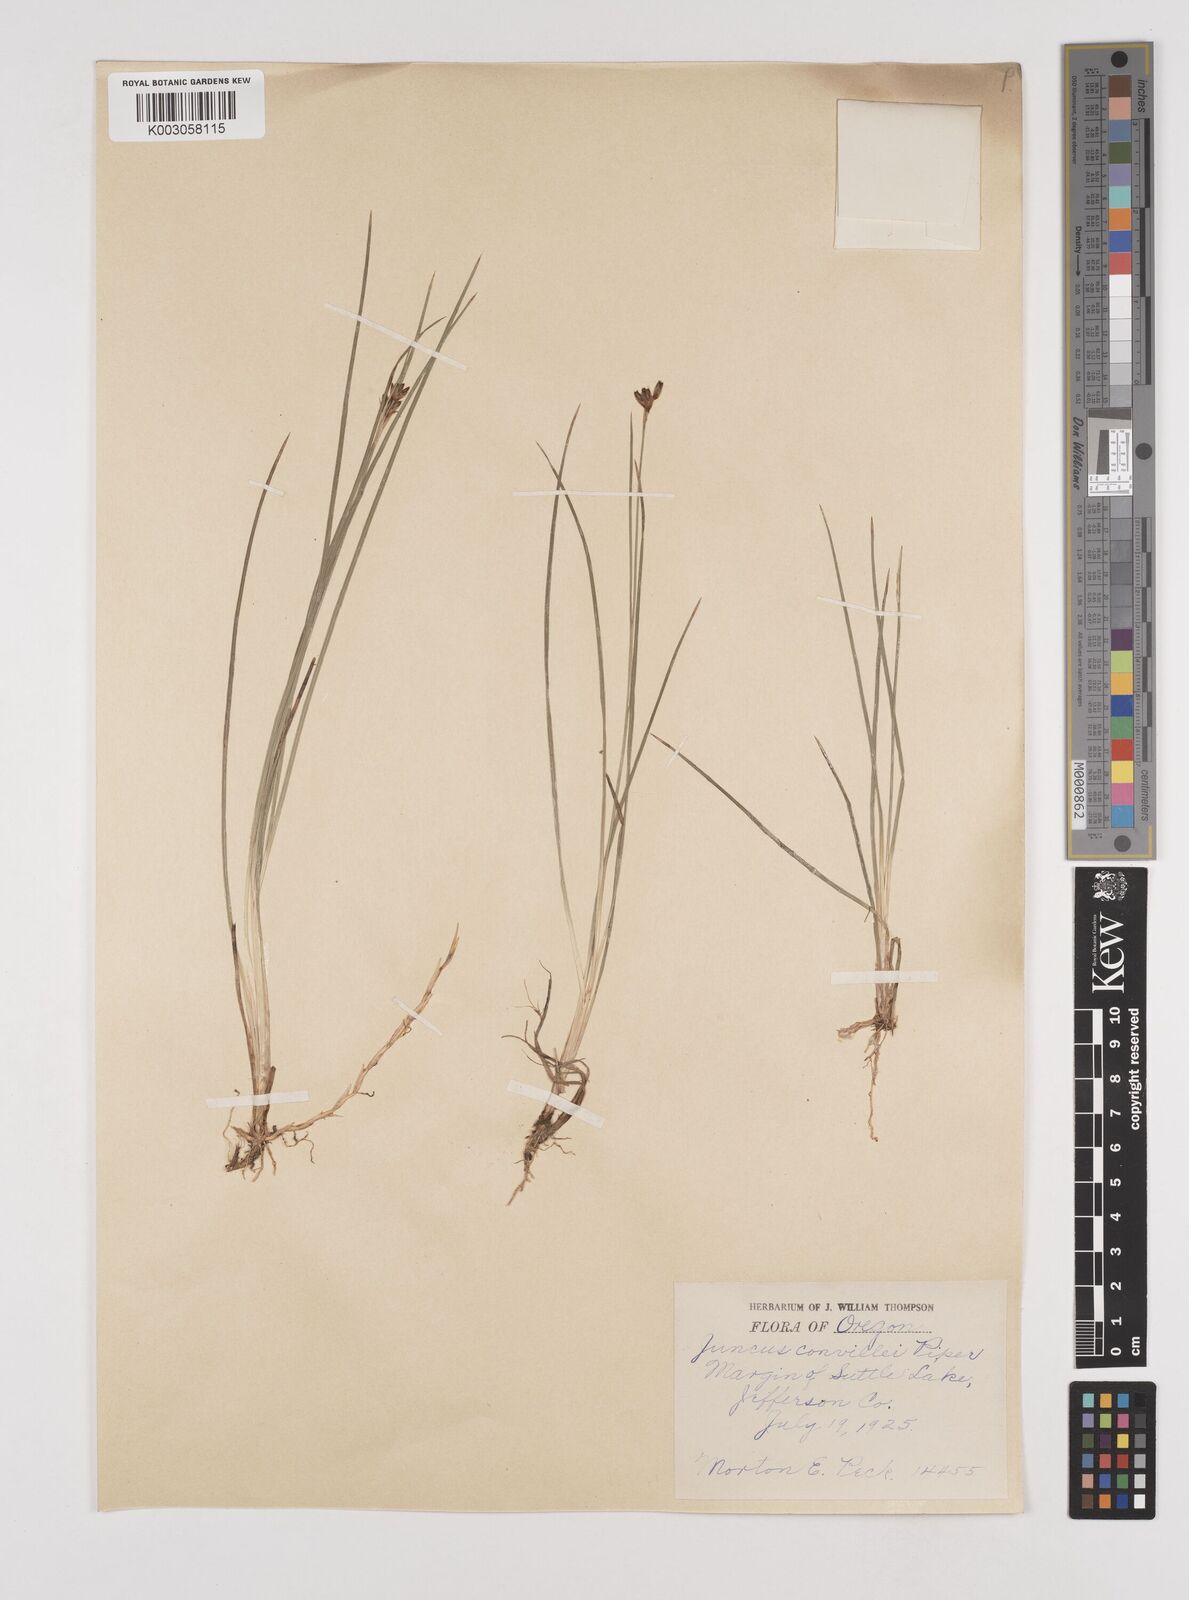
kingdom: Plantae
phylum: Tracheophyta
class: Liliopsida
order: Poales
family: Juncaceae
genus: Juncus
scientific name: Juncus covillei
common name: Coville's rush
